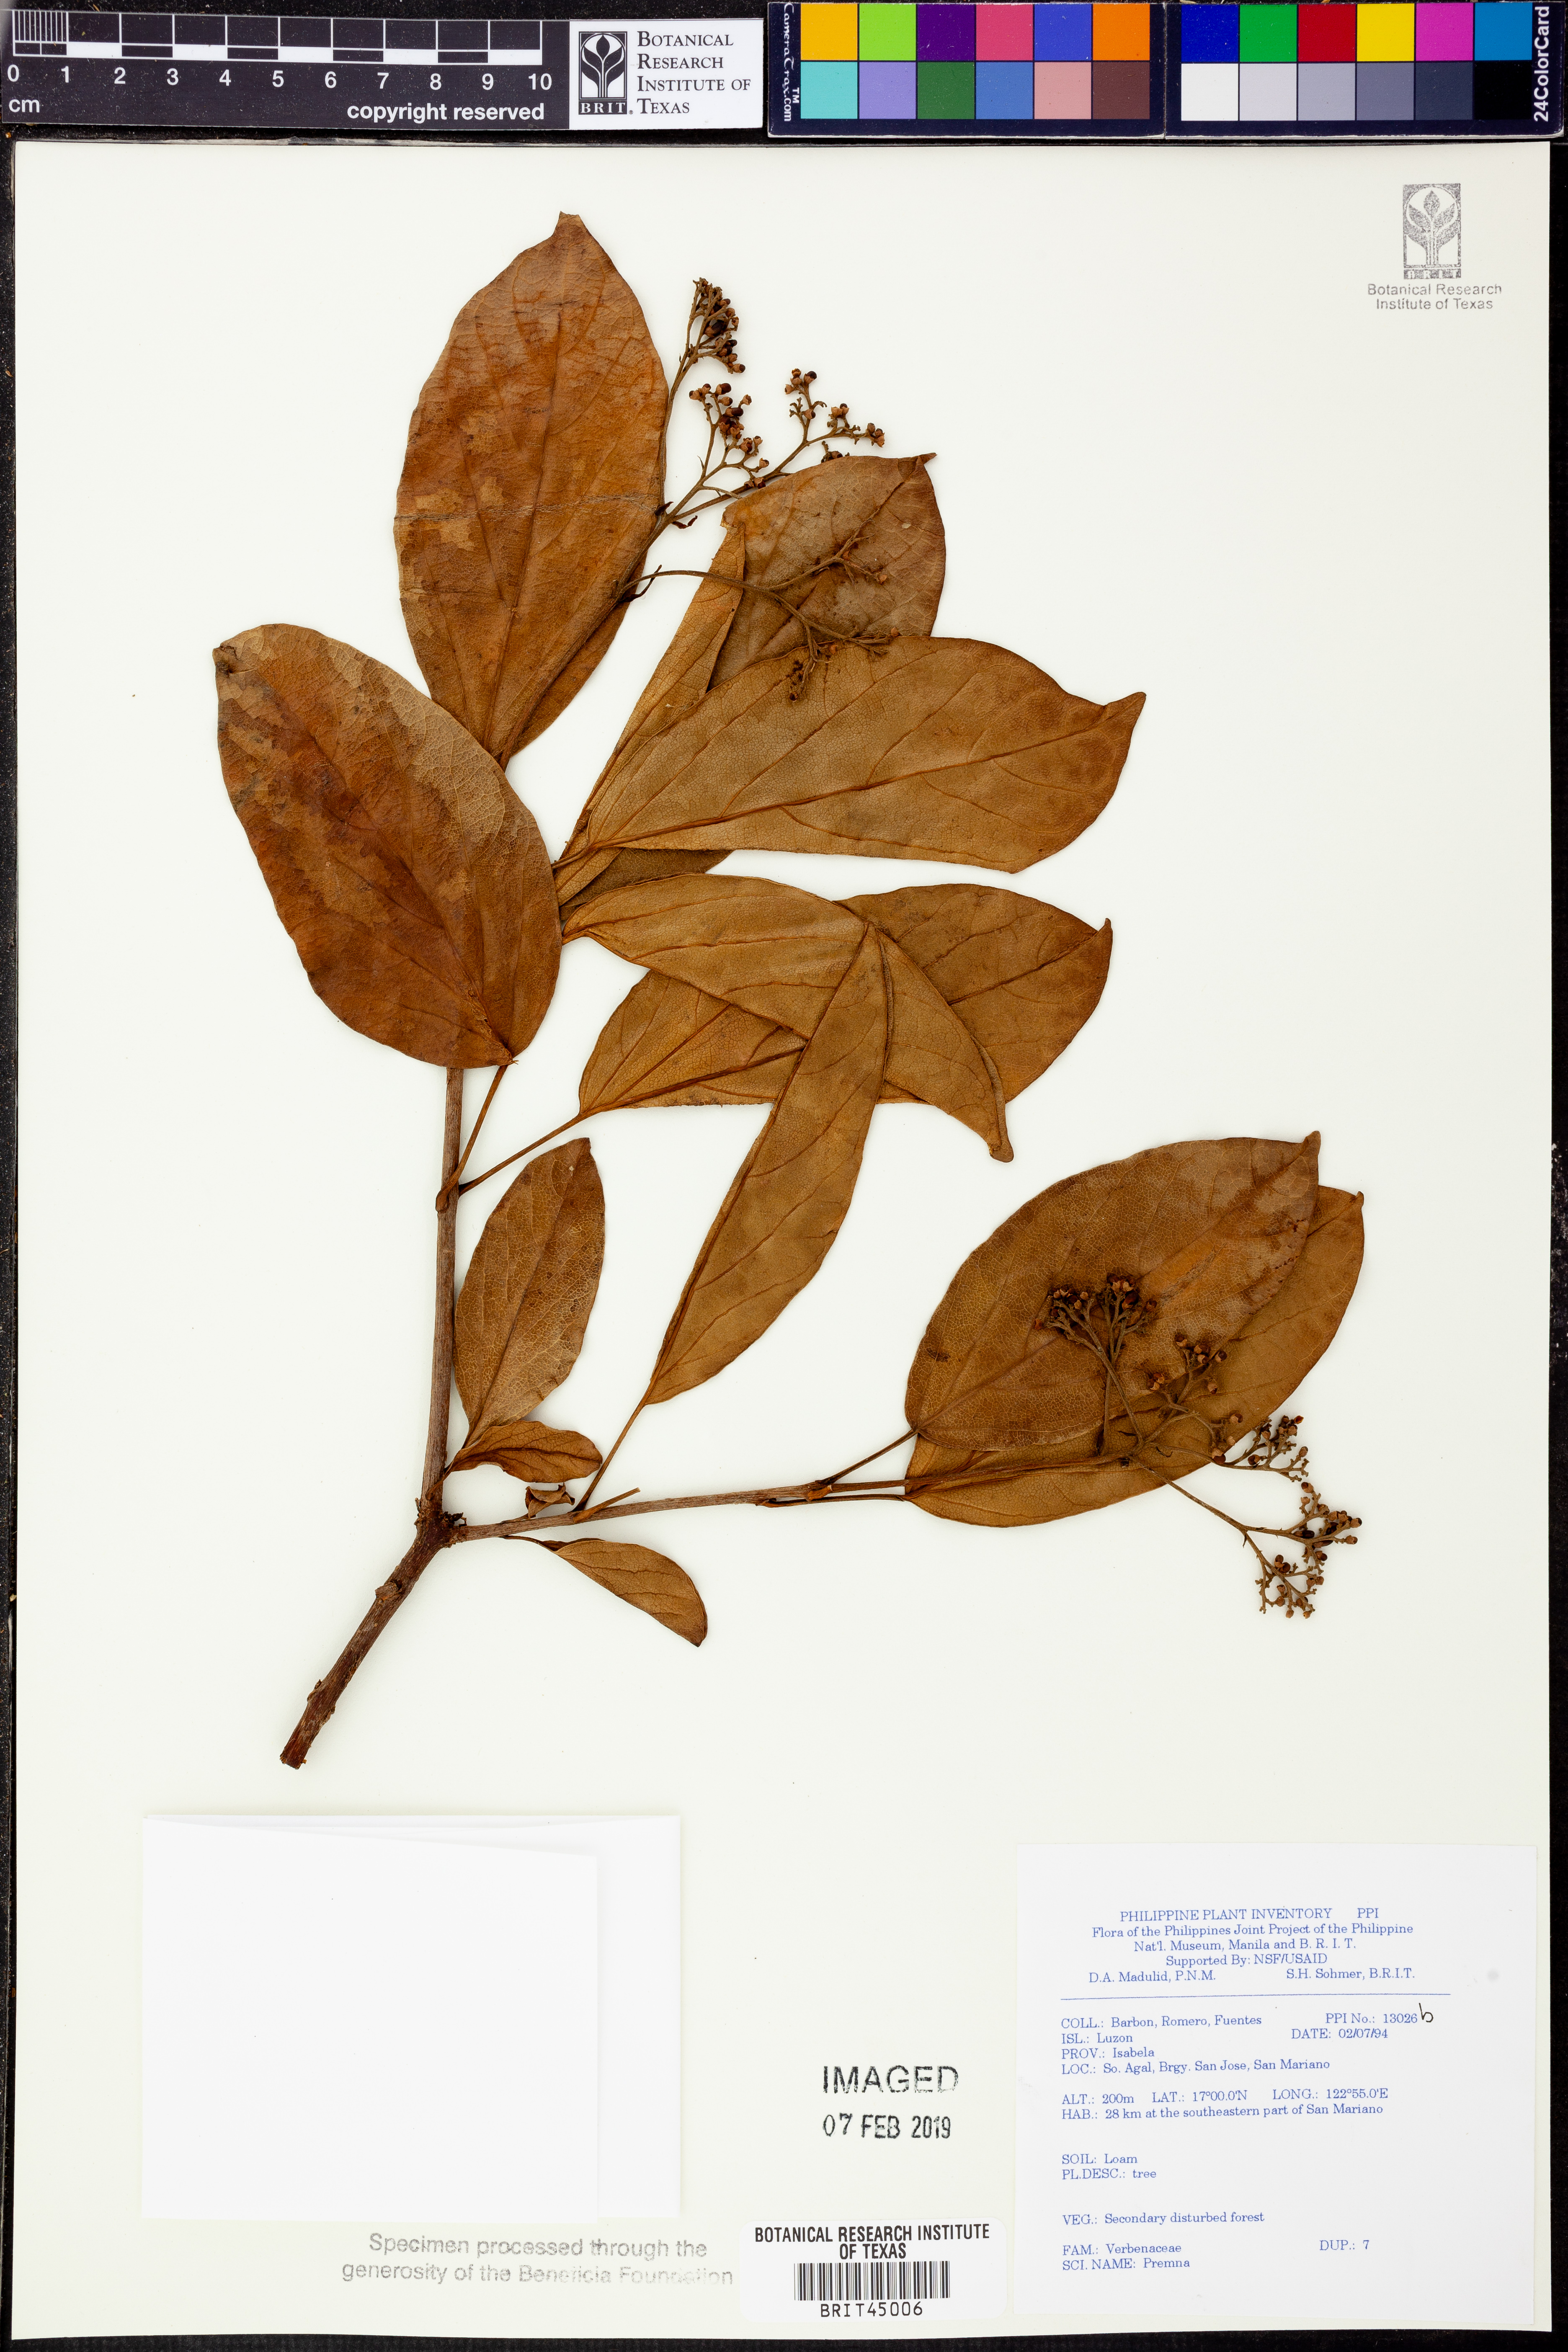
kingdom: Plantae
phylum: Tracheophyta
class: Magnoliopsida
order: Lamiales
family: Lamiaceae
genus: Premna
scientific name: Premna
